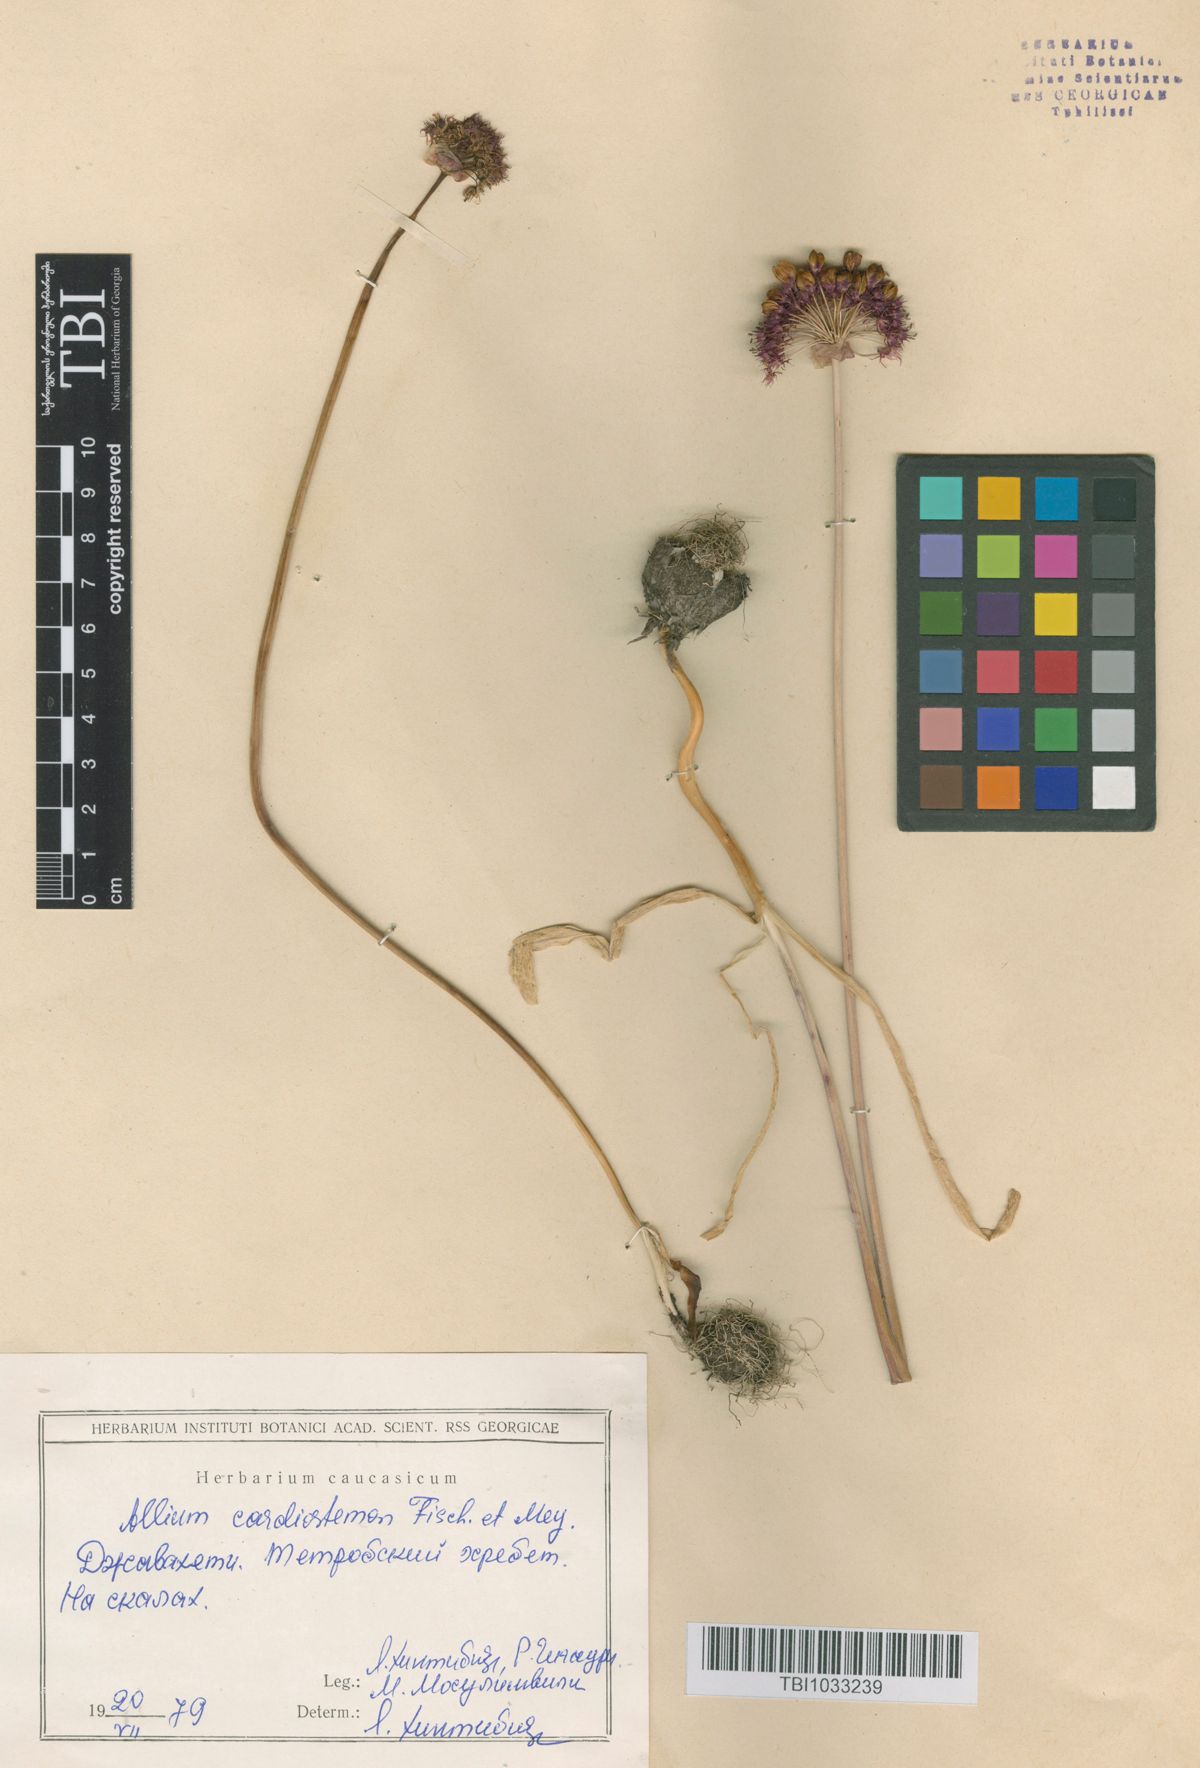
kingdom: Plantae
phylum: Tracheophyta
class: Liliopsida
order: Asparagales
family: Amaryllidaceae
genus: Allium
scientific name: Allium cardiostemon
